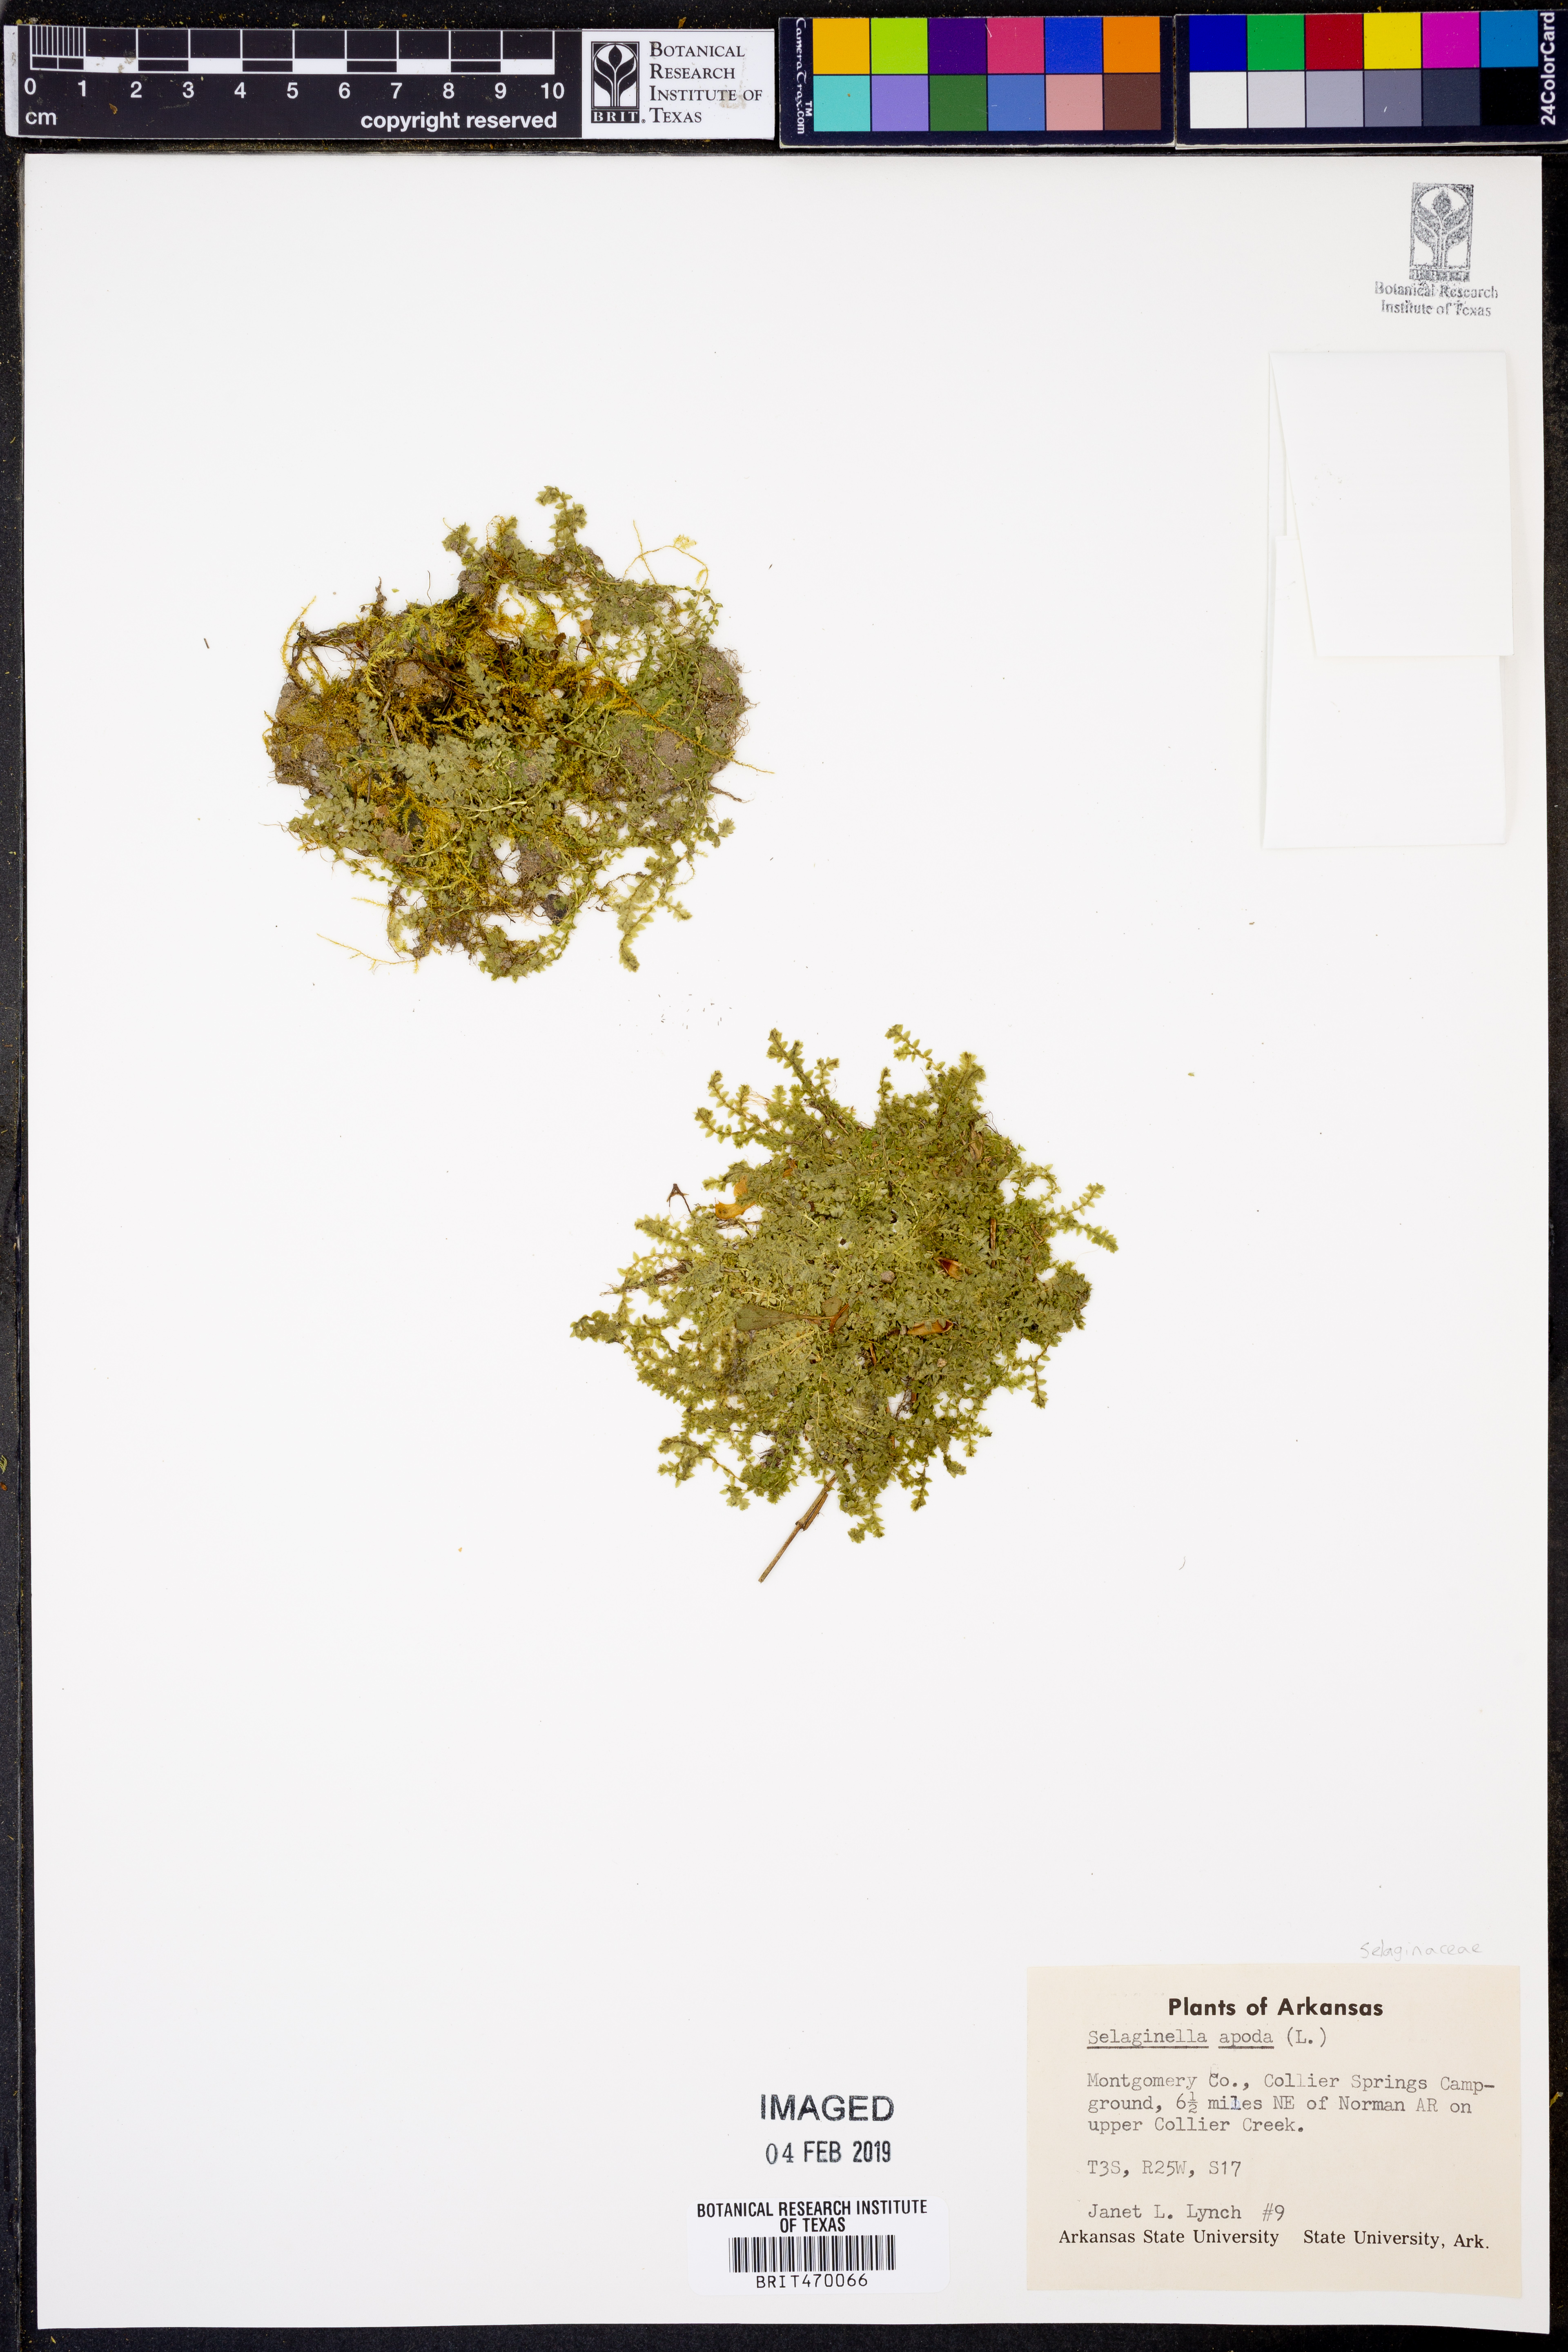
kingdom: Plantae
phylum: Tracheophyta
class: Lycopodiopsida
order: Selaginellales
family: Selaginellaceae
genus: Selaginella
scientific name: Selaginella apoda
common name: Creeping spikemoss
